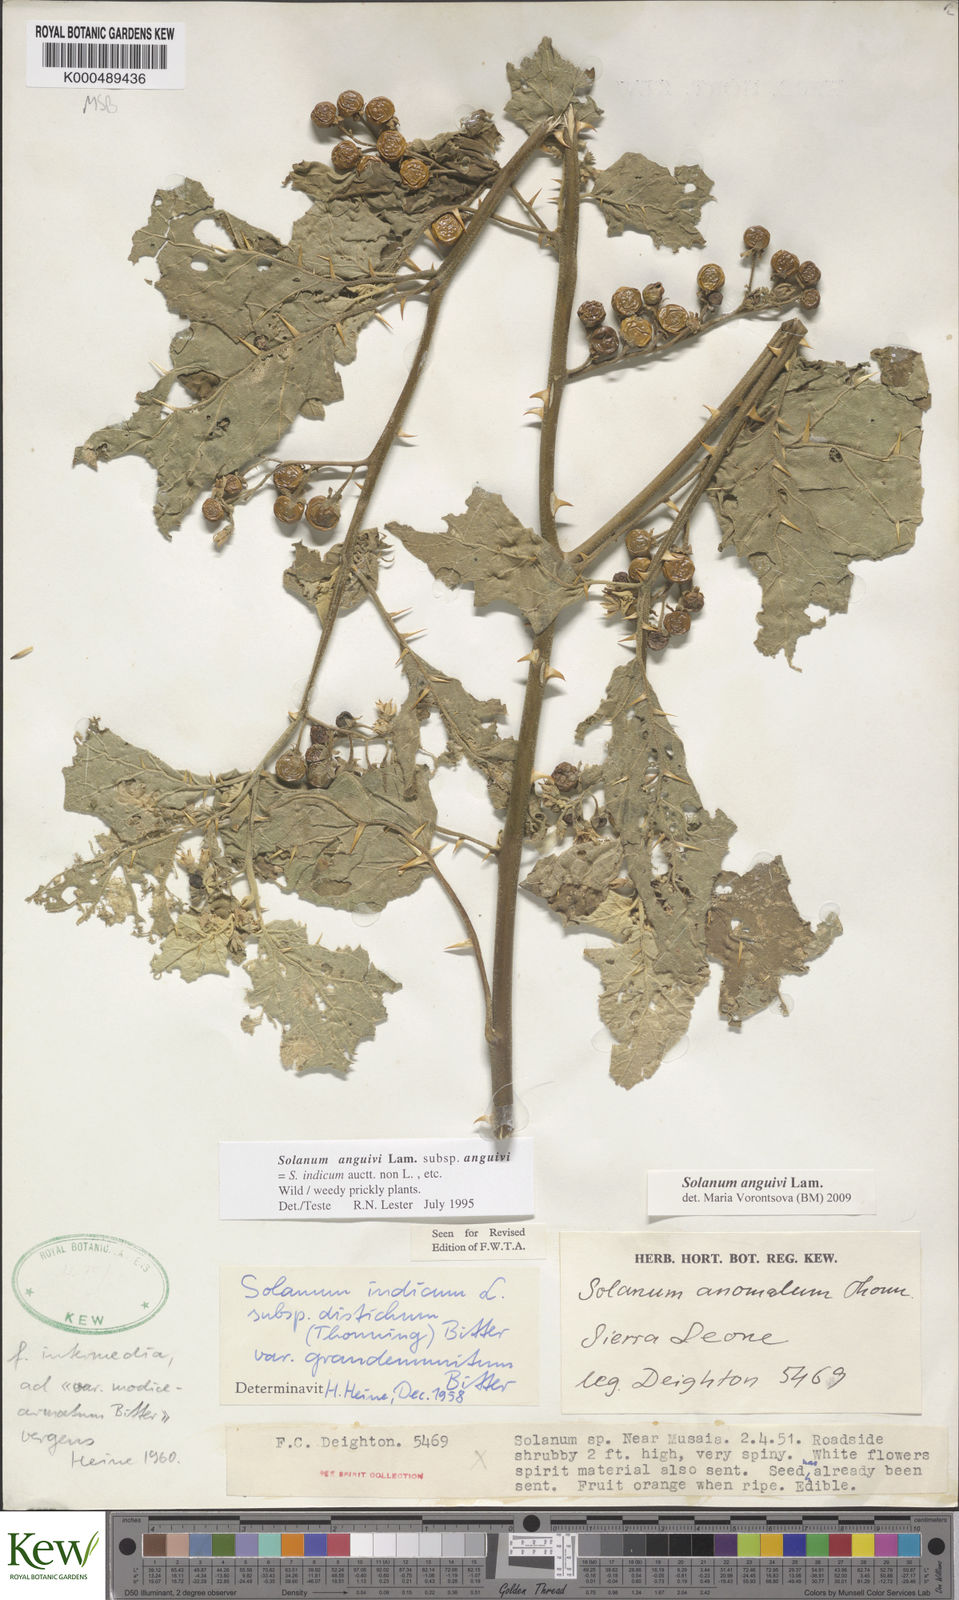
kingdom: Plantae
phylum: Tracheophyta
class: Magnoliopsida
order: Solanales
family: Solanaceae
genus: Solanum
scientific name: Solanum anguivi
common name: Forest bitterberry
